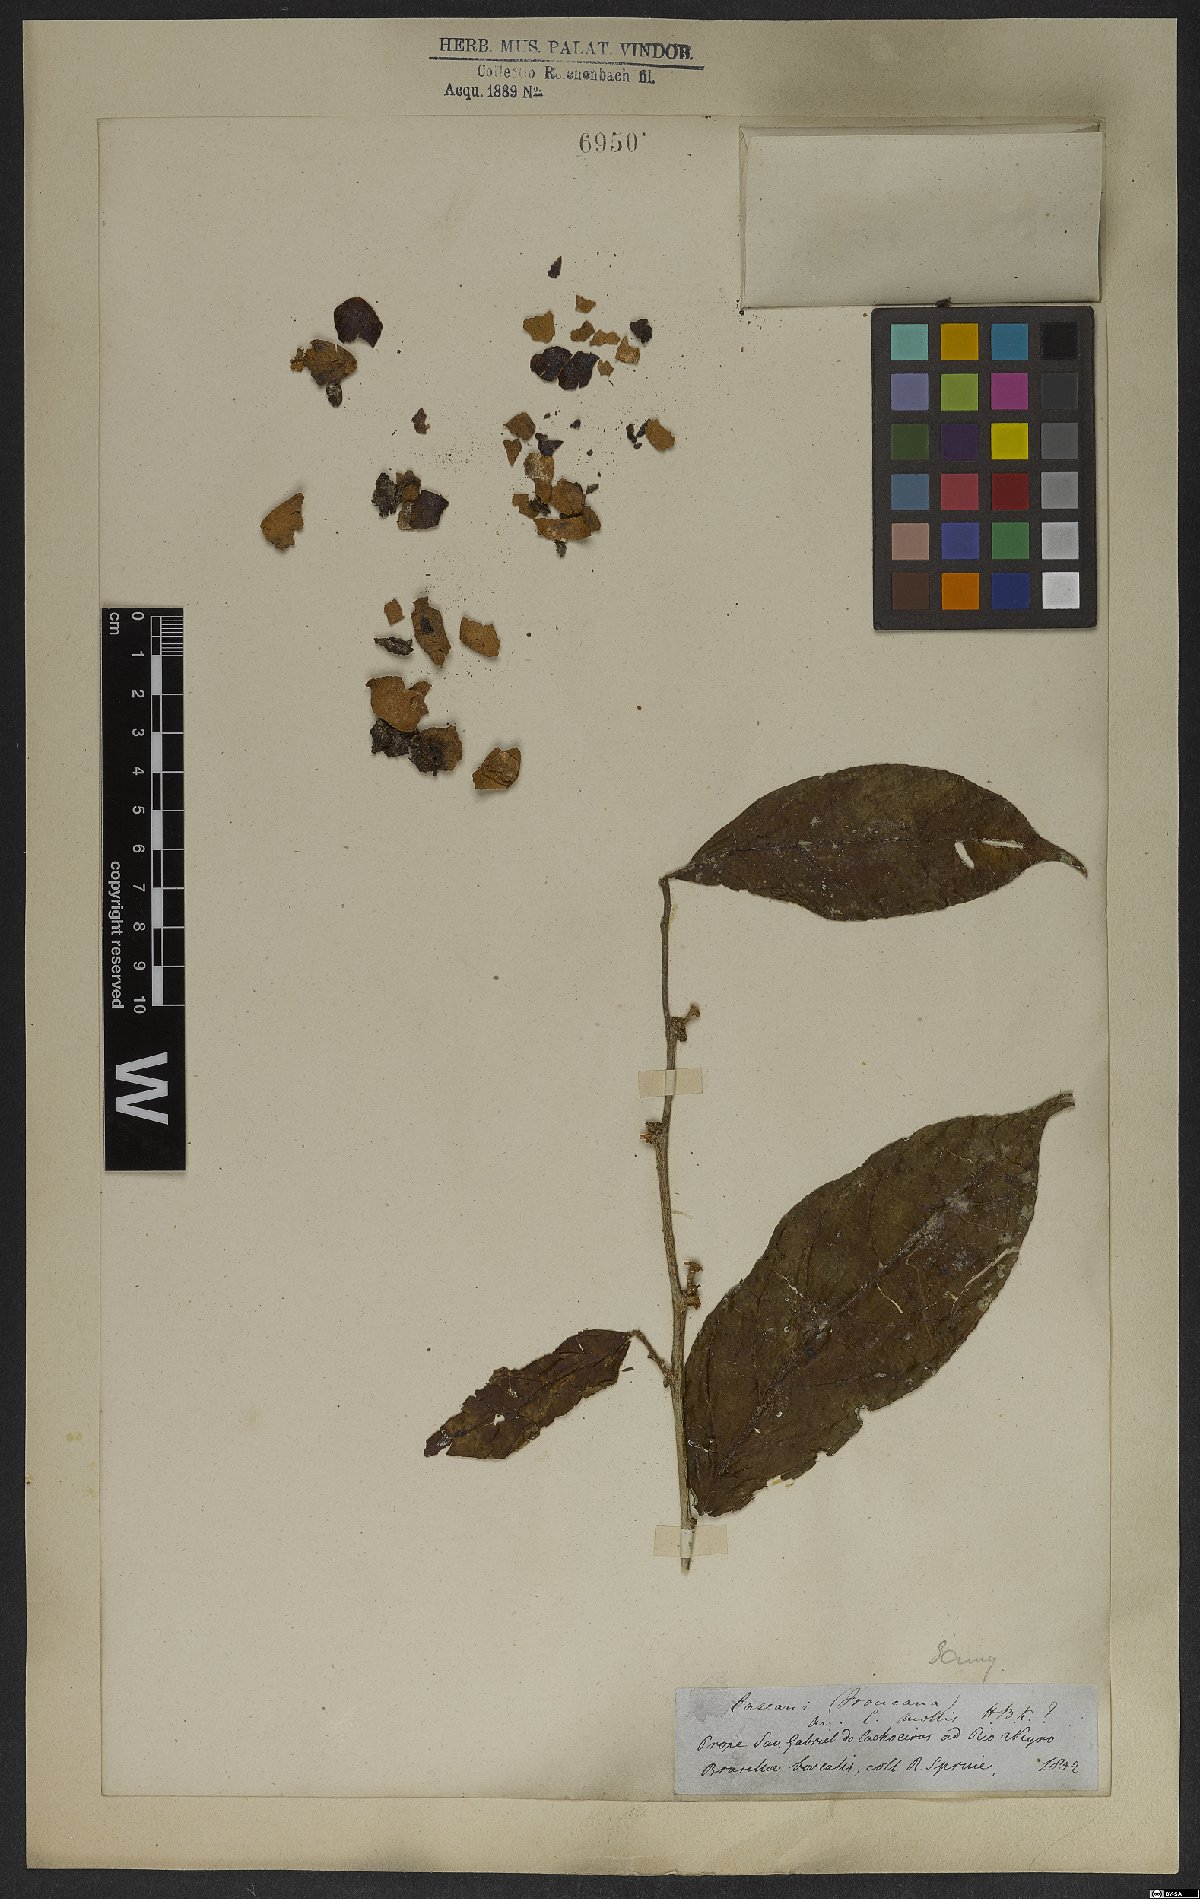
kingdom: Plantae
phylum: Tracheophyta
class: Magnoliopsida
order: Malpighiales
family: Salicaceae
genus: Casearia
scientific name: Casearia hirsuta
